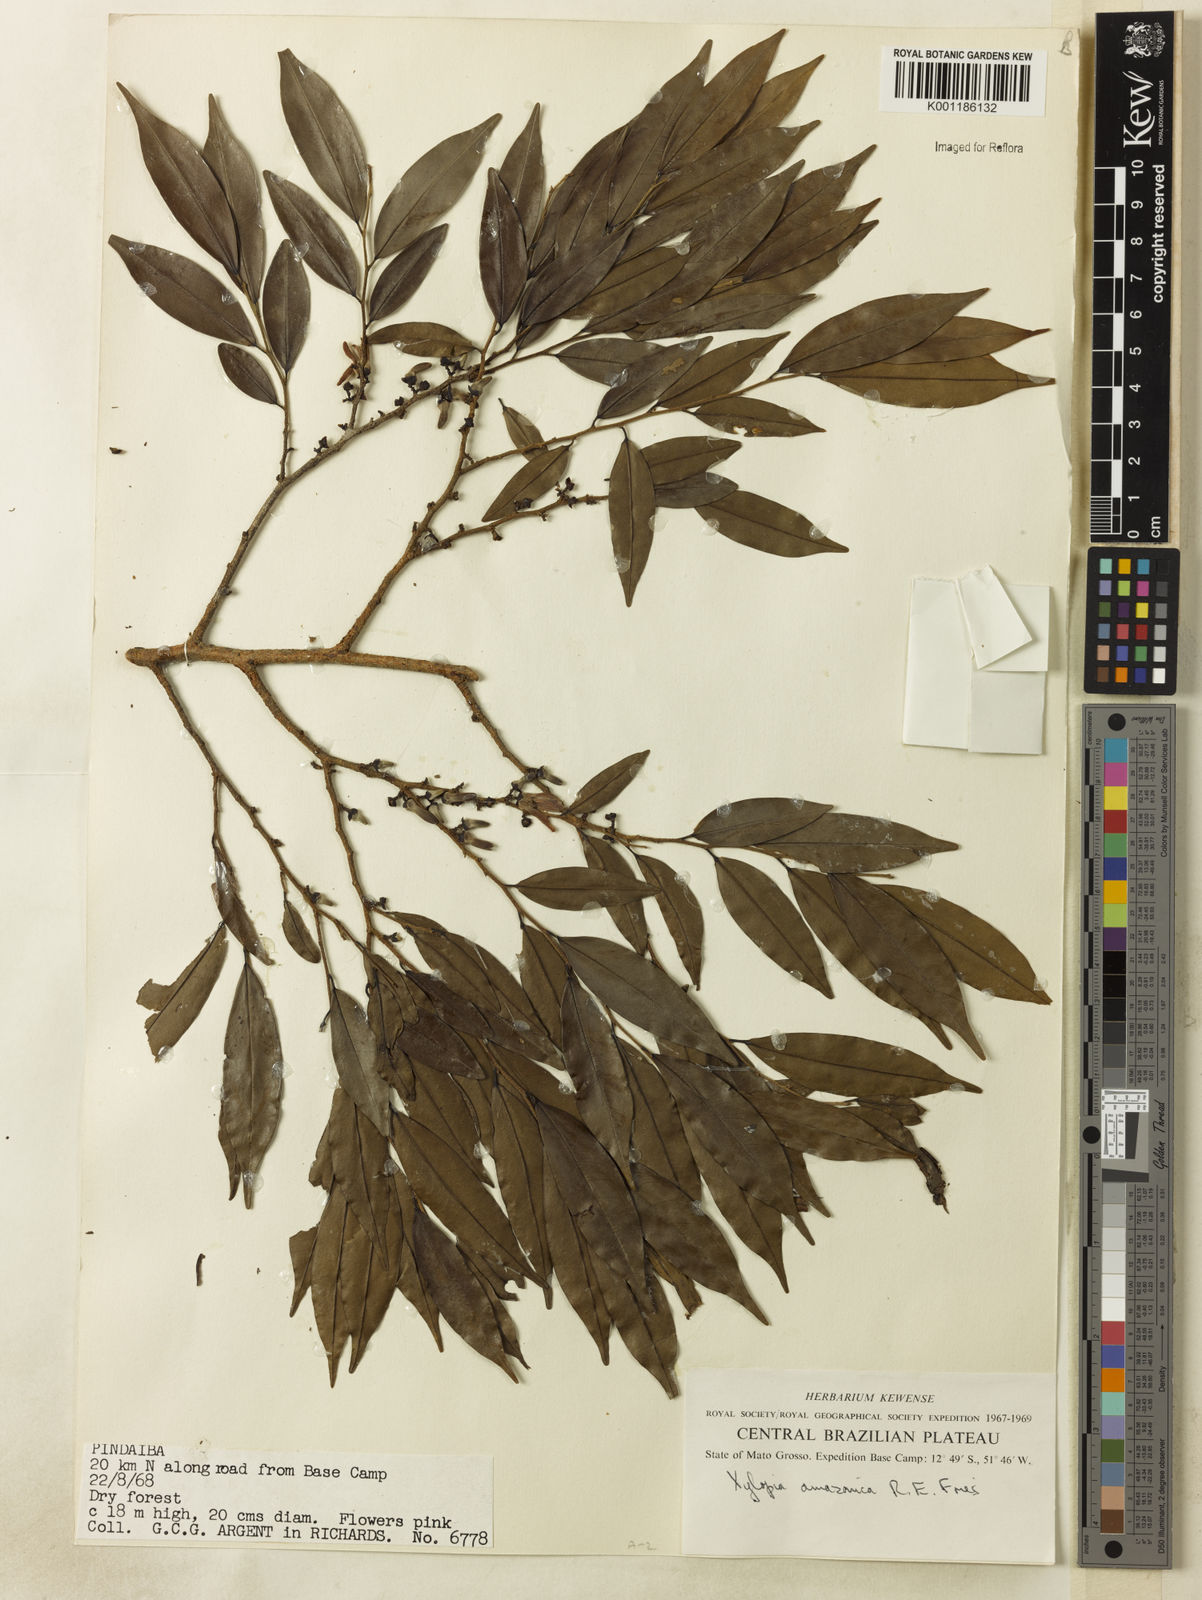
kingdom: Plantae
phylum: Tracheophyta
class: Magnoliopsida
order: Magnoliales
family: Annonaceae
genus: Xylopia
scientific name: Xylopia amazonica
